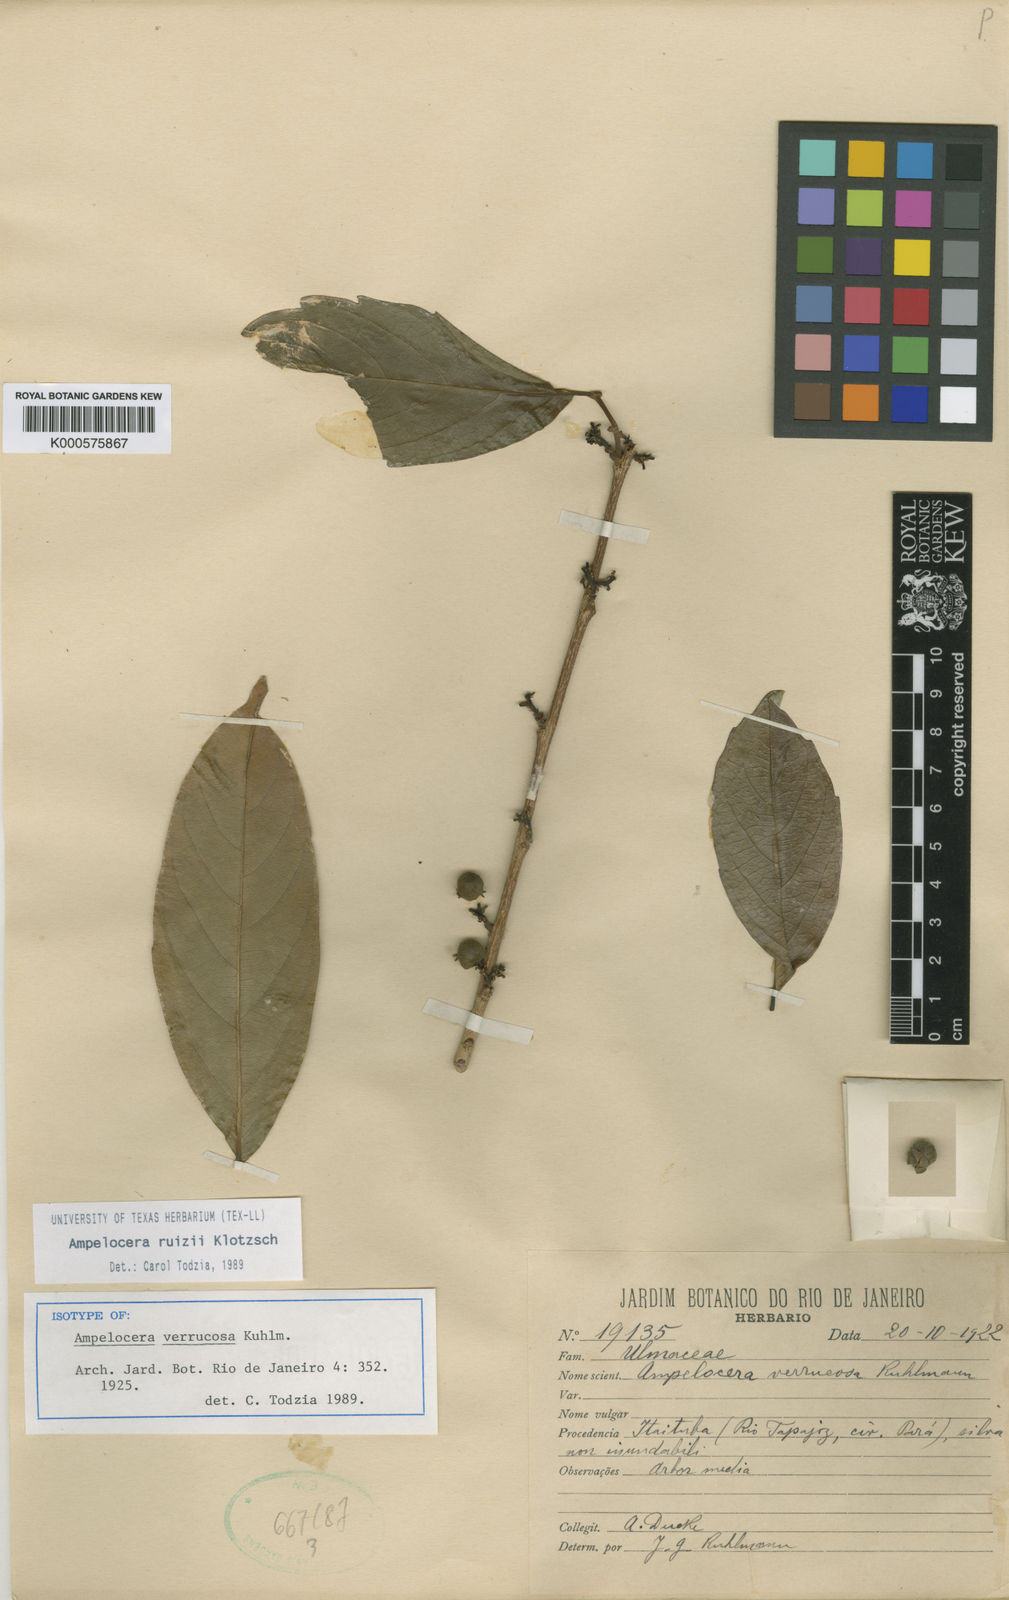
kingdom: Plantae
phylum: Tracheophyta
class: Magnoliopsida
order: Rosales
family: Cannabaceae
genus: Ampelocera
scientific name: Ampelocera ruizii
